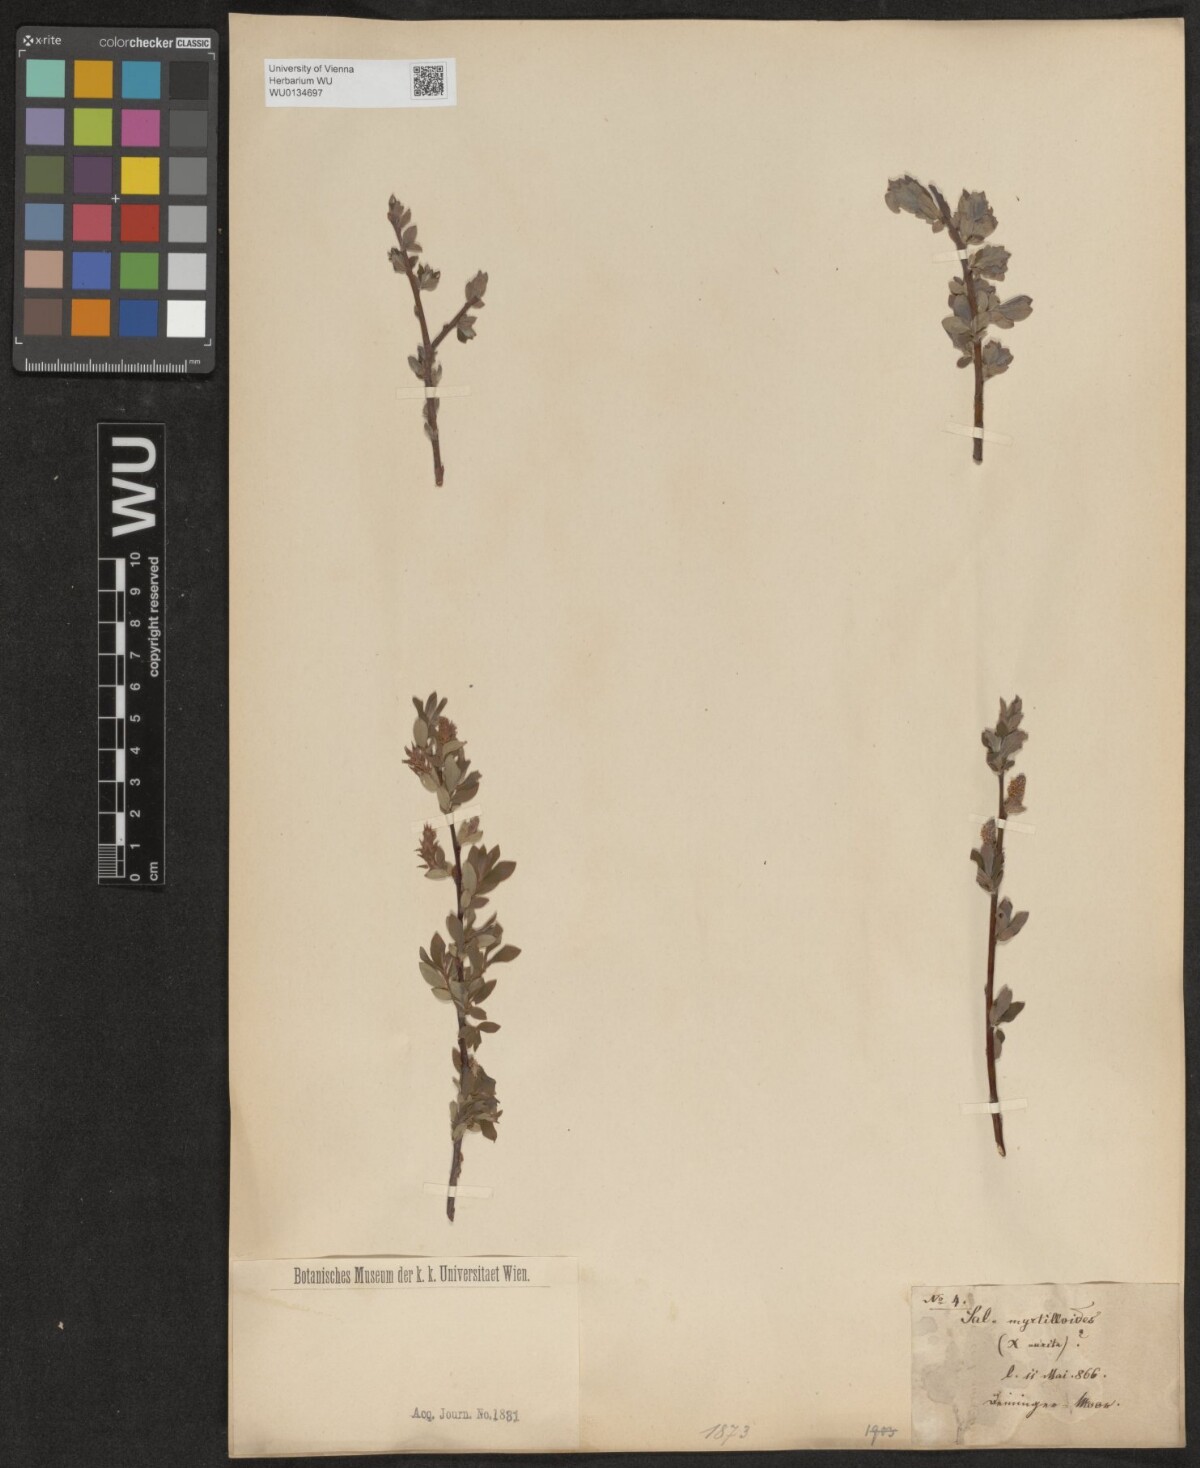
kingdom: Plantae
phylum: Tracheophyta
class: Magnoliopsida
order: Malpighiales
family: Salicaceae
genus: Salix
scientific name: Salix
